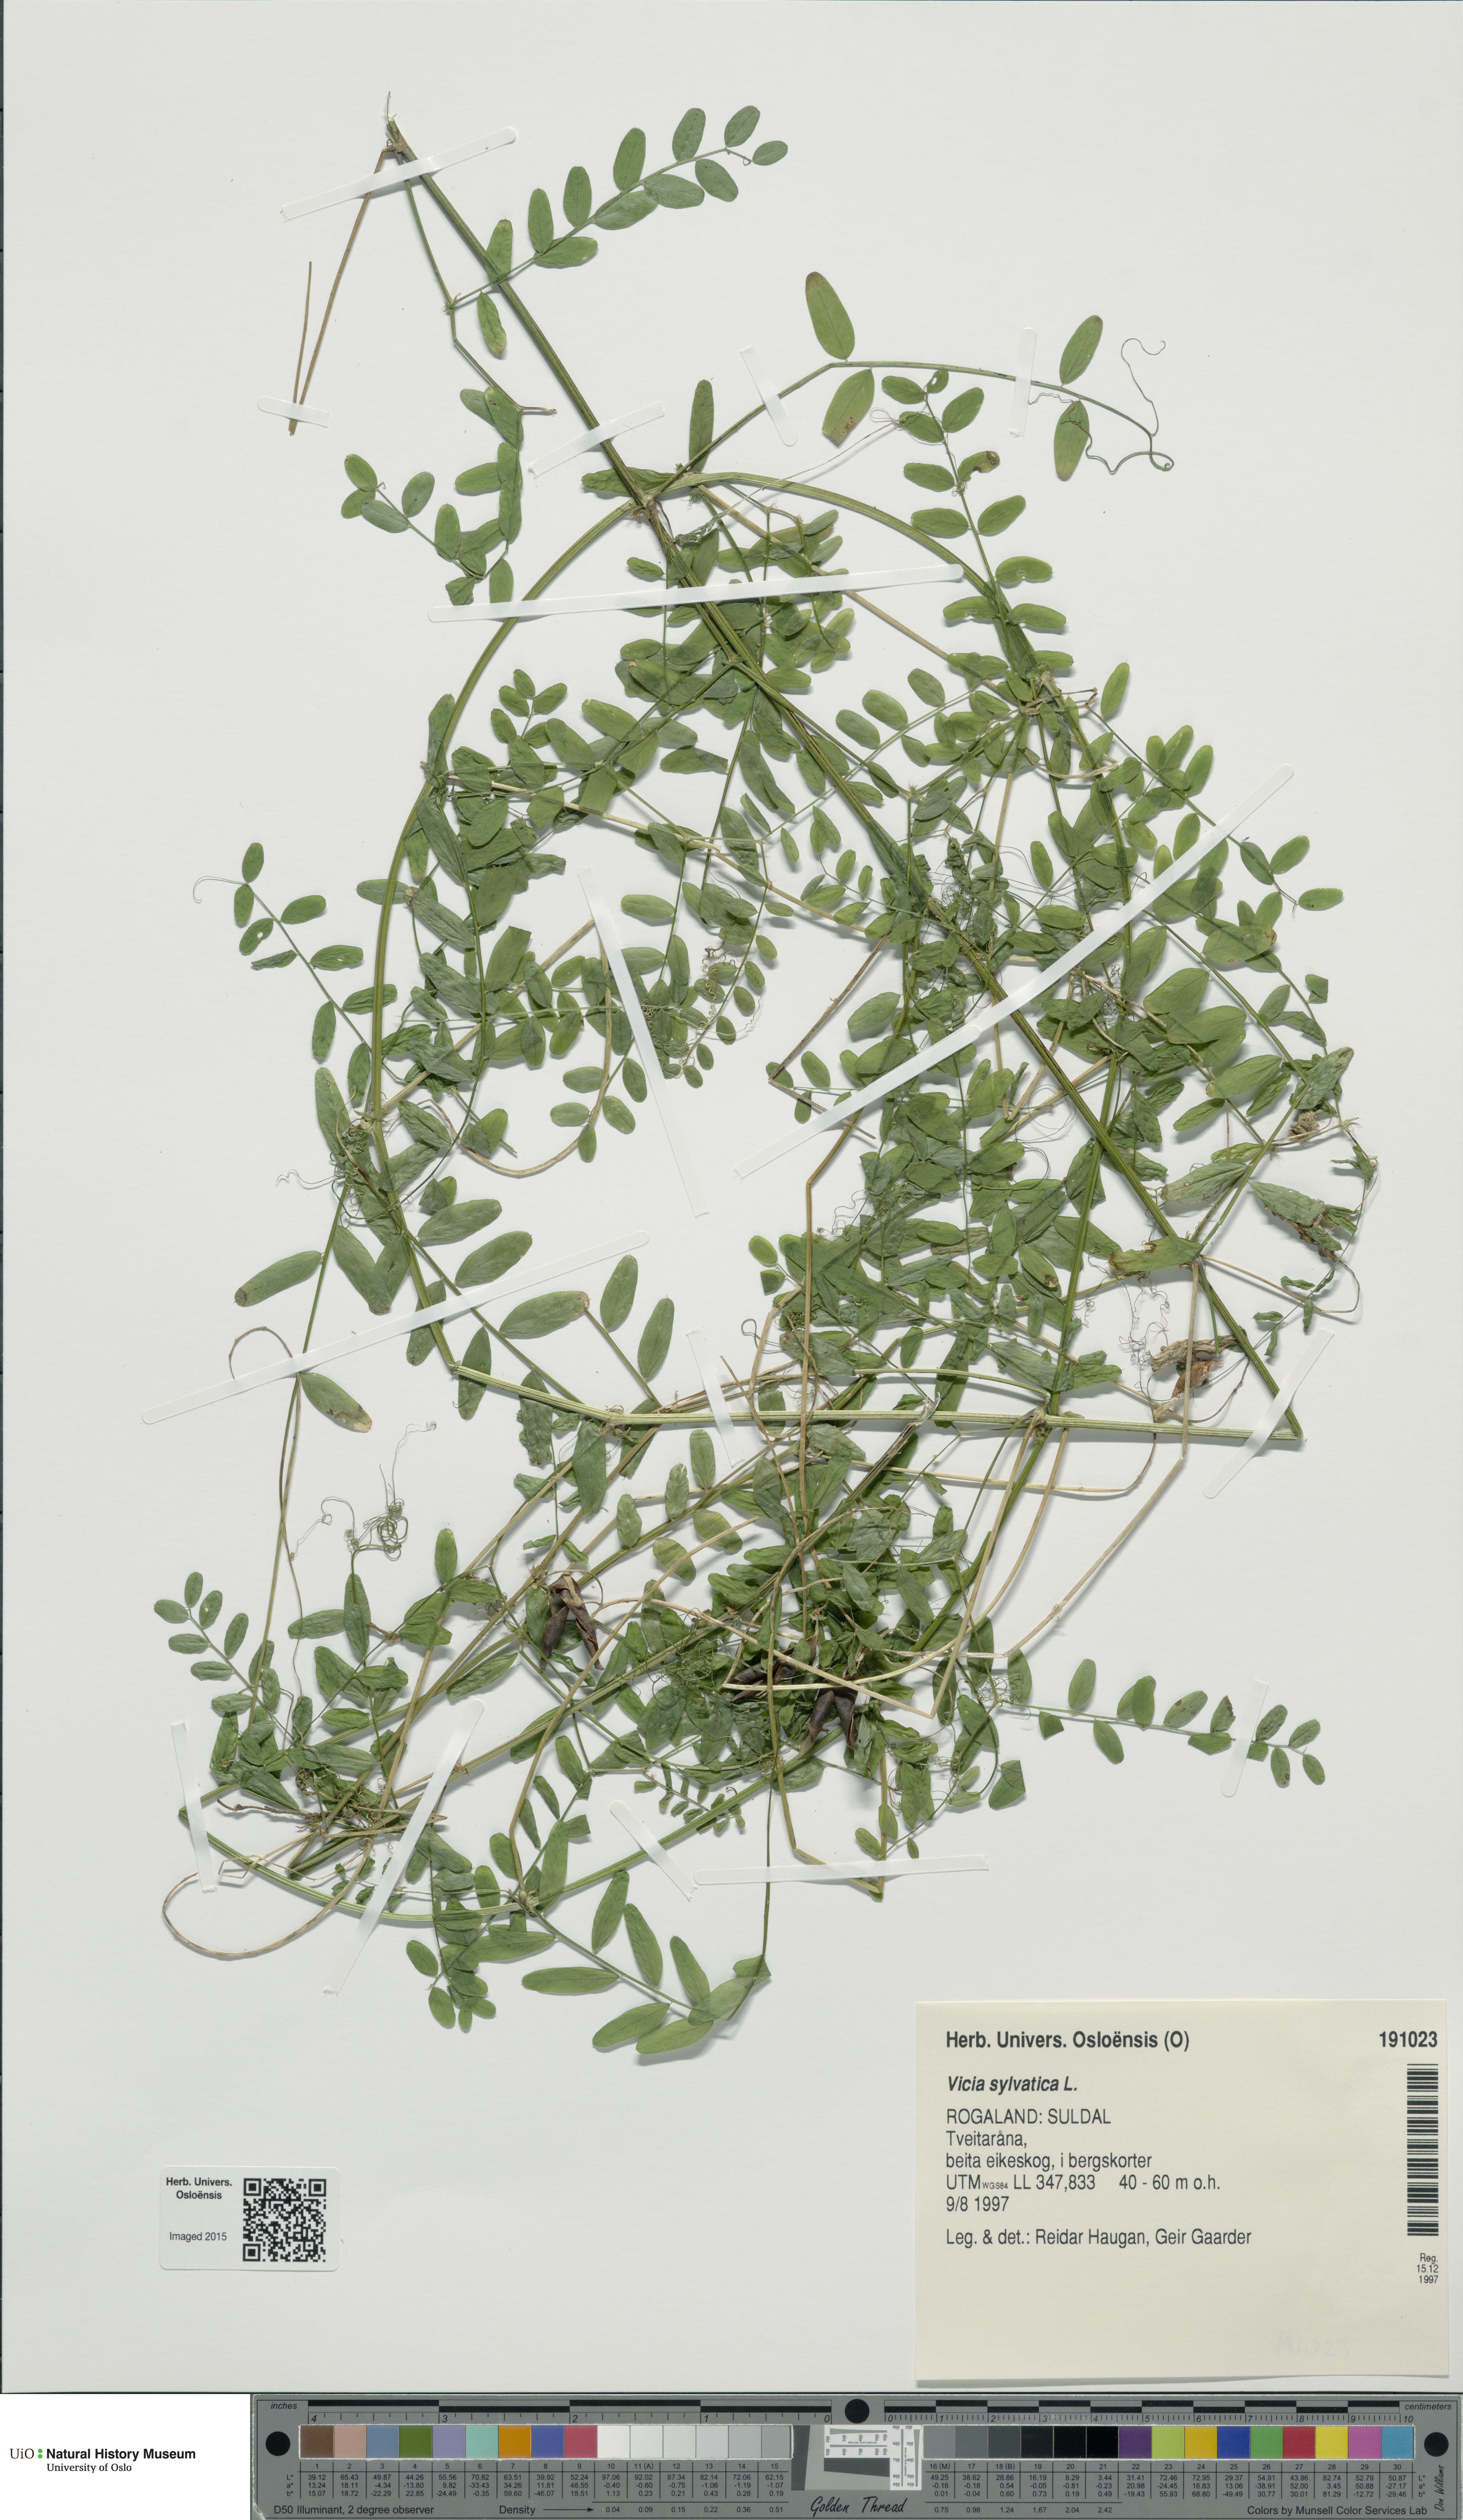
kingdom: Plantae
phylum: Tracheophyta
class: Magnoliopsida
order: Fabales
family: Fabaceae
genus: Vicia
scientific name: Vicia sylvatica
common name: Wood vetch
